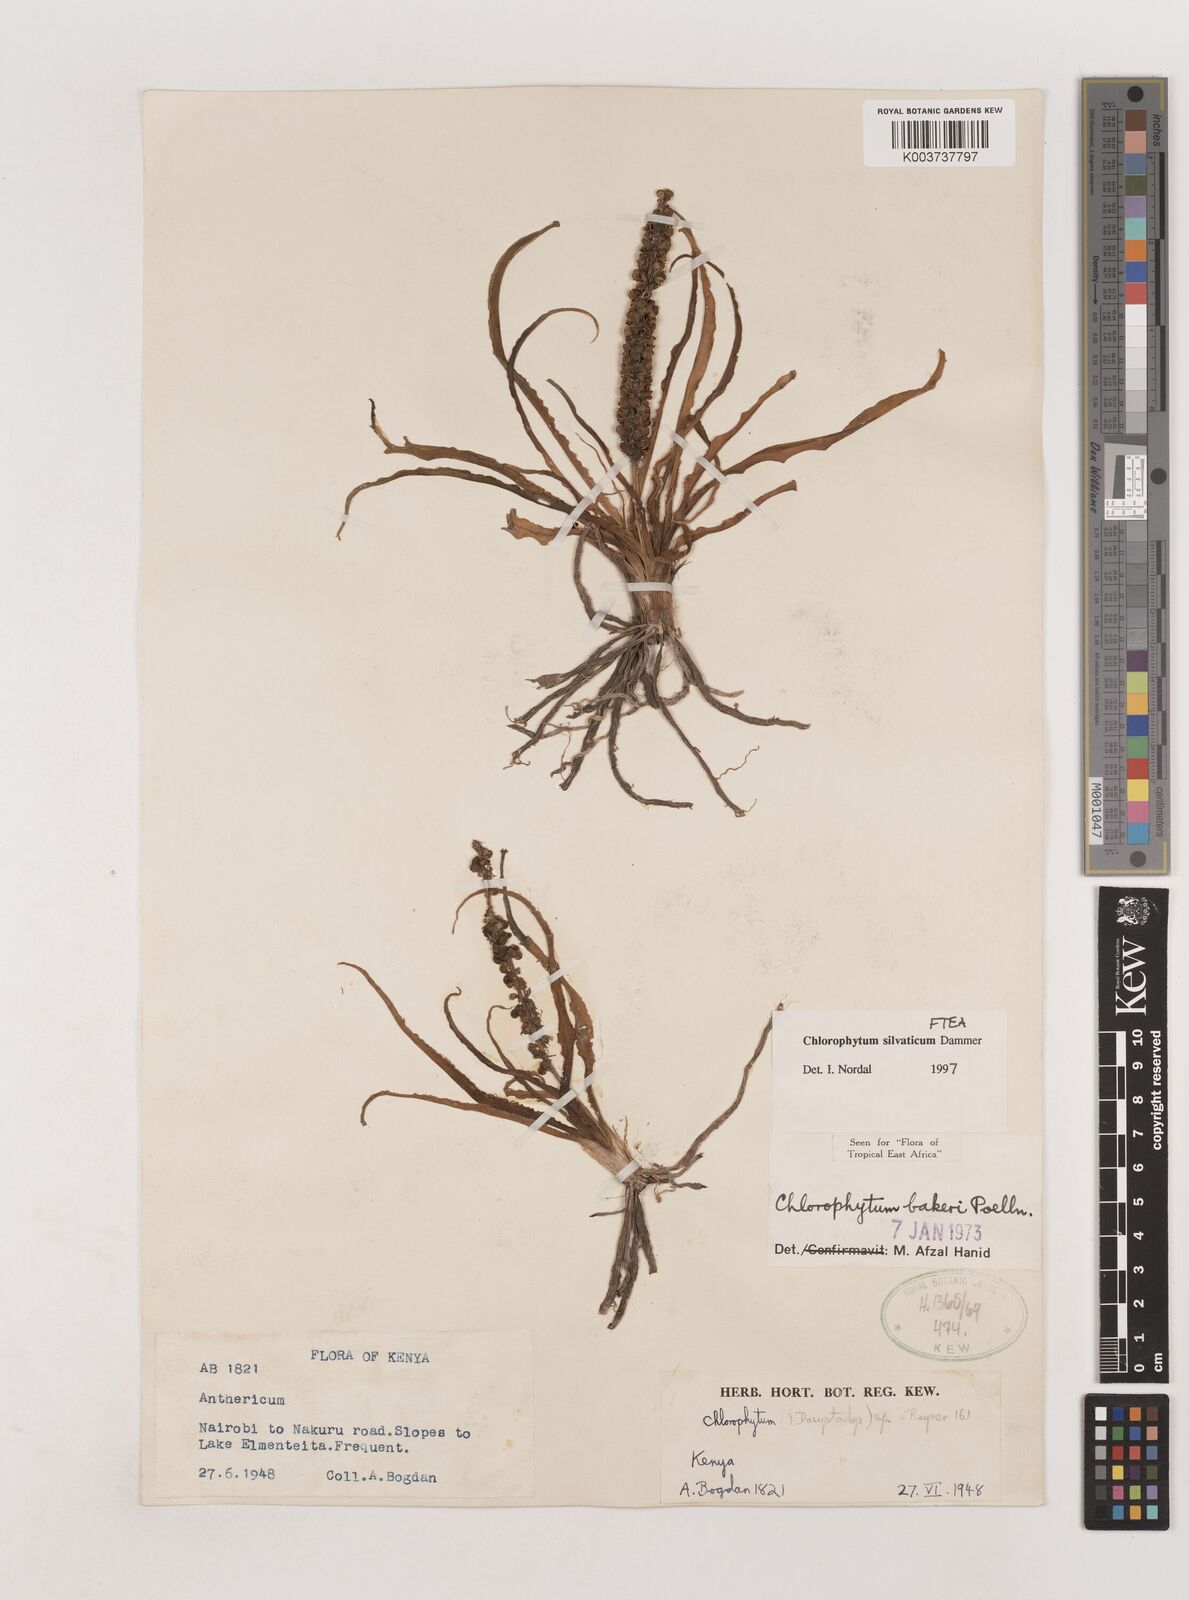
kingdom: Plantae
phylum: Tracheophyta
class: Liliopsida
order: Asparagales
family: Asparagaceae
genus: Chlorophytum
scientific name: Chlorophytum africanum
